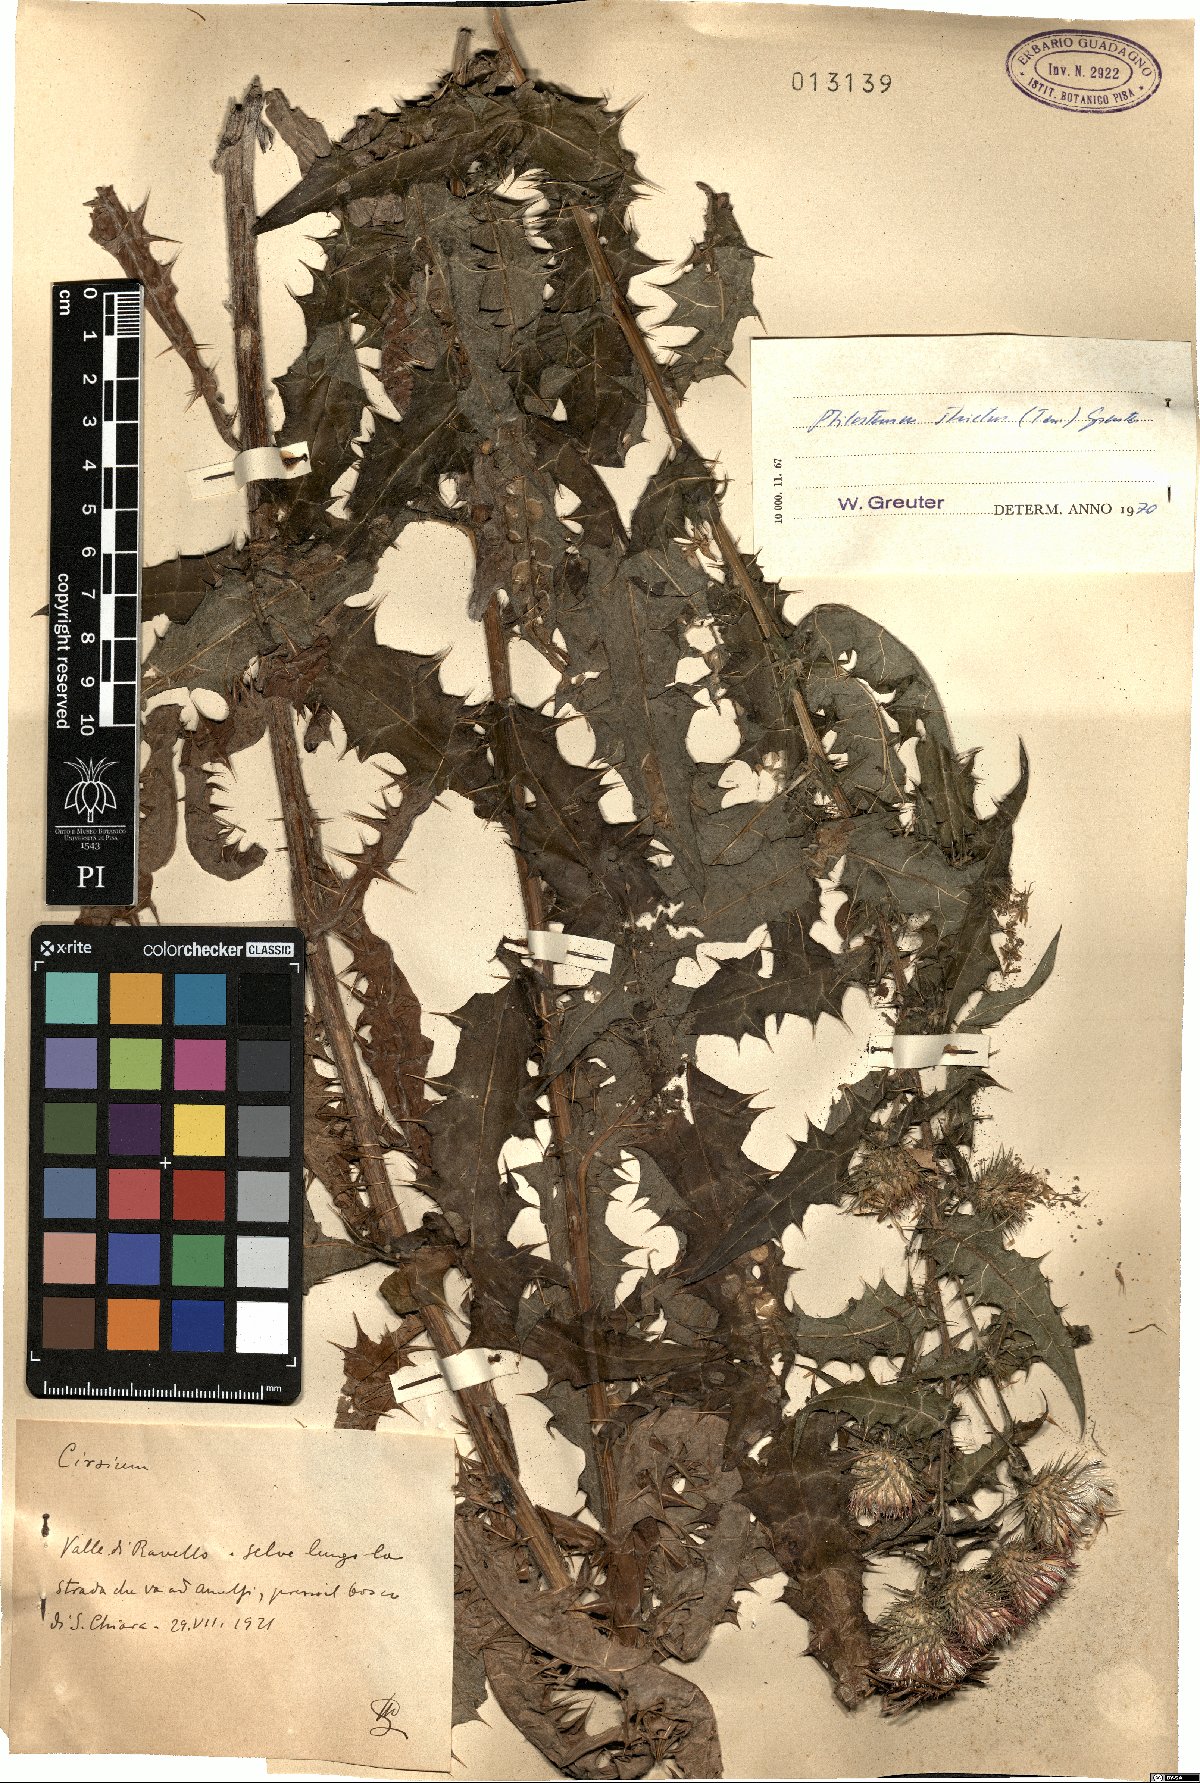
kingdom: Plantae
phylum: Tracheophyta
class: Magnoliopsida
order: Asterales
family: Asteraceae
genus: Ptilostemon
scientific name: Ptilostemon strictus
